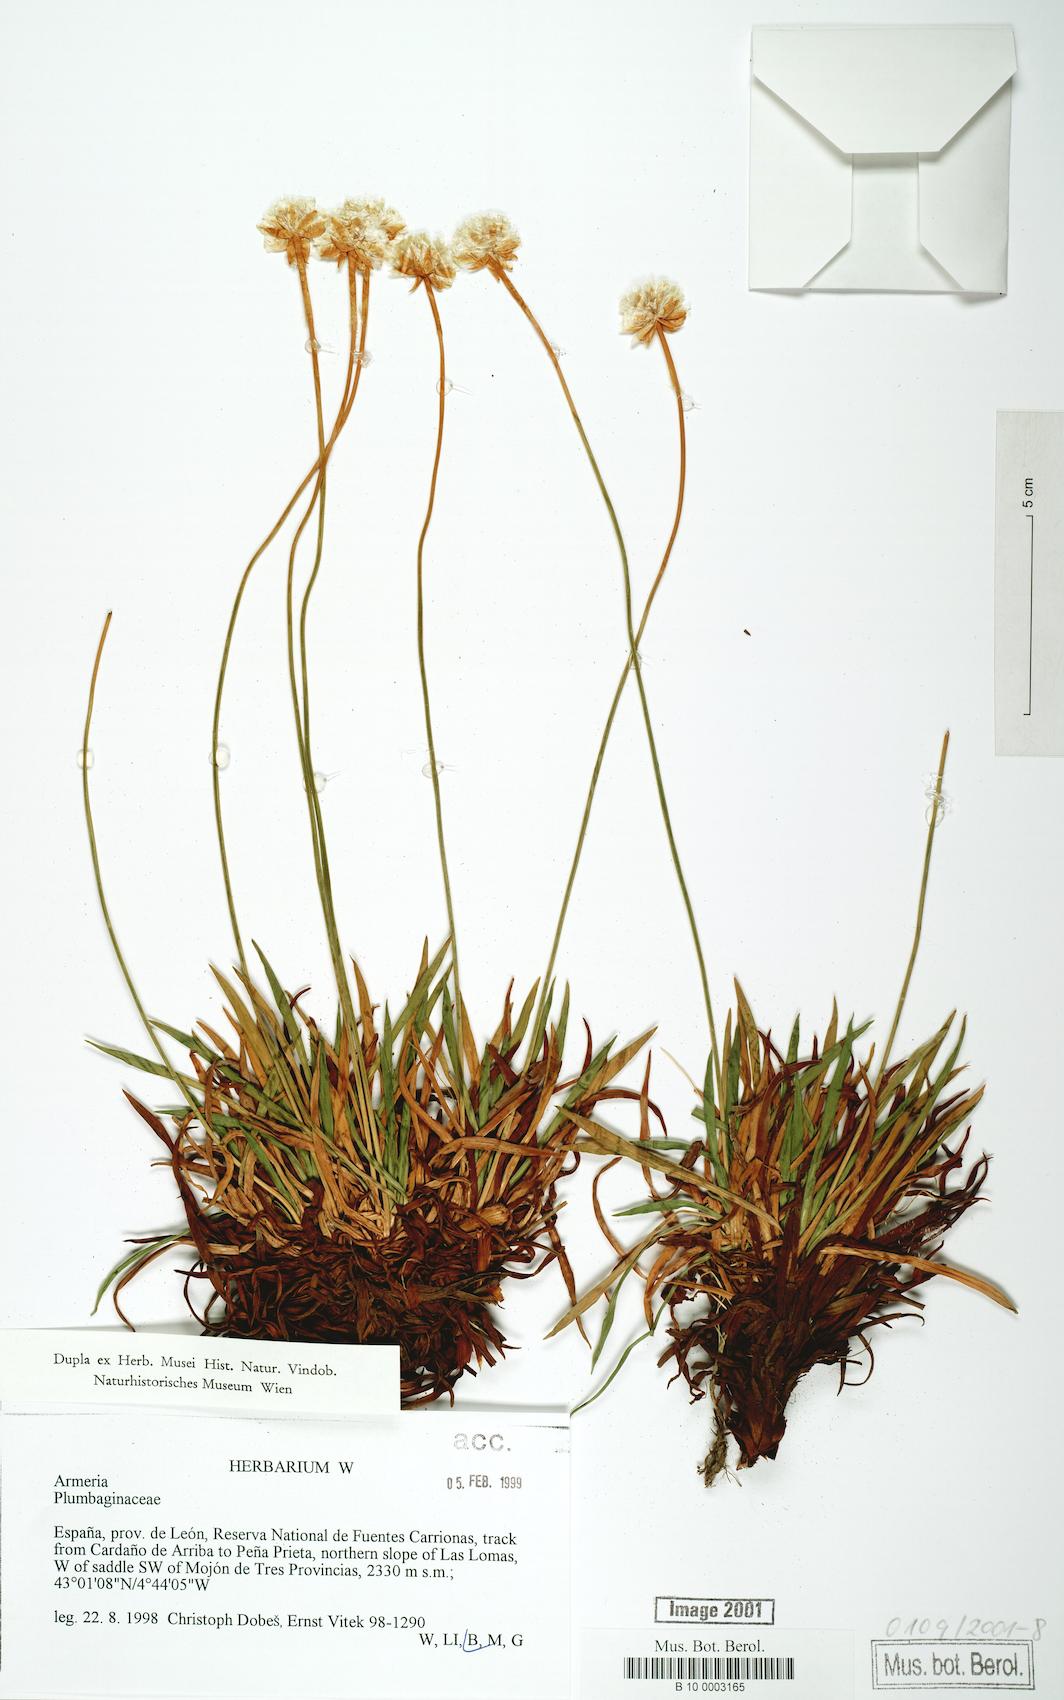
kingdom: Plantae
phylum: Tracheophyta
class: Magnoliopsida
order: Caryophyllales
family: Plumbaginaceae
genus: Armeria
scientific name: Armeria
